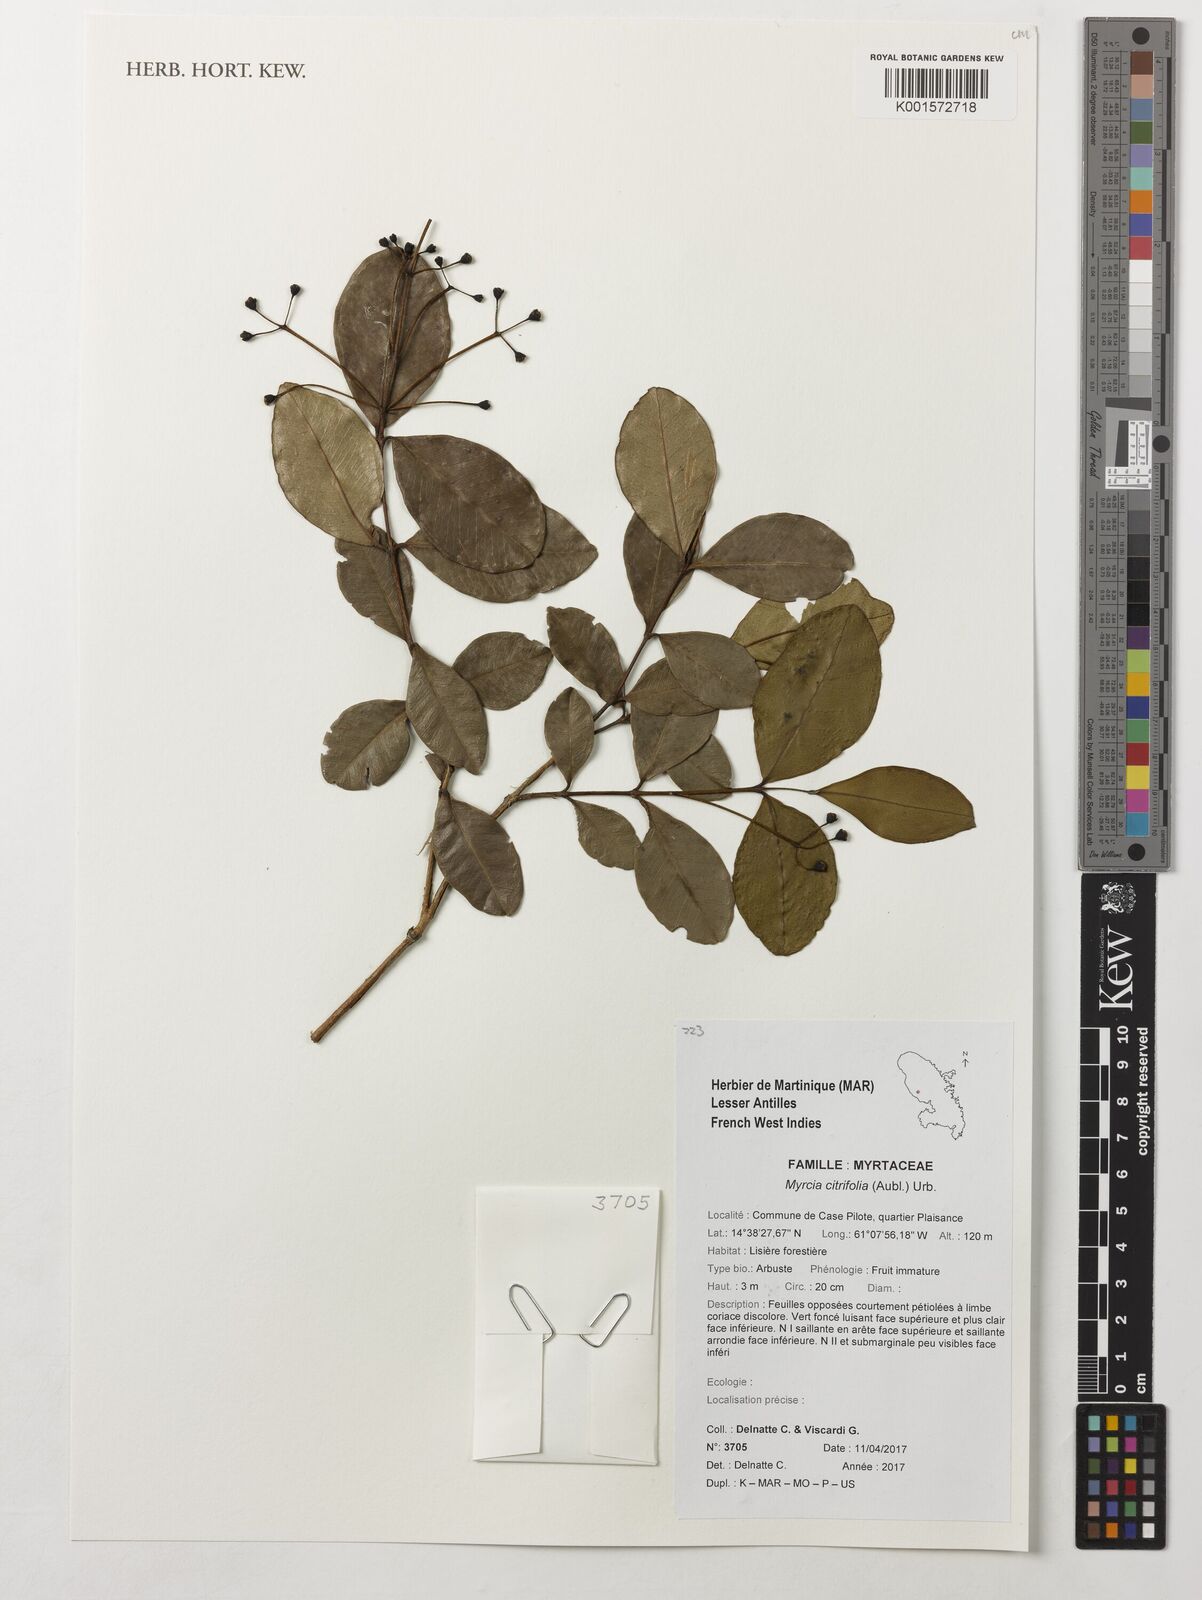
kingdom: Plantae
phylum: Tracheophyta
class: Magnoliopsida
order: Myrtales
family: Myrtaceae
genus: Myrcia
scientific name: Myrcia guianensis
